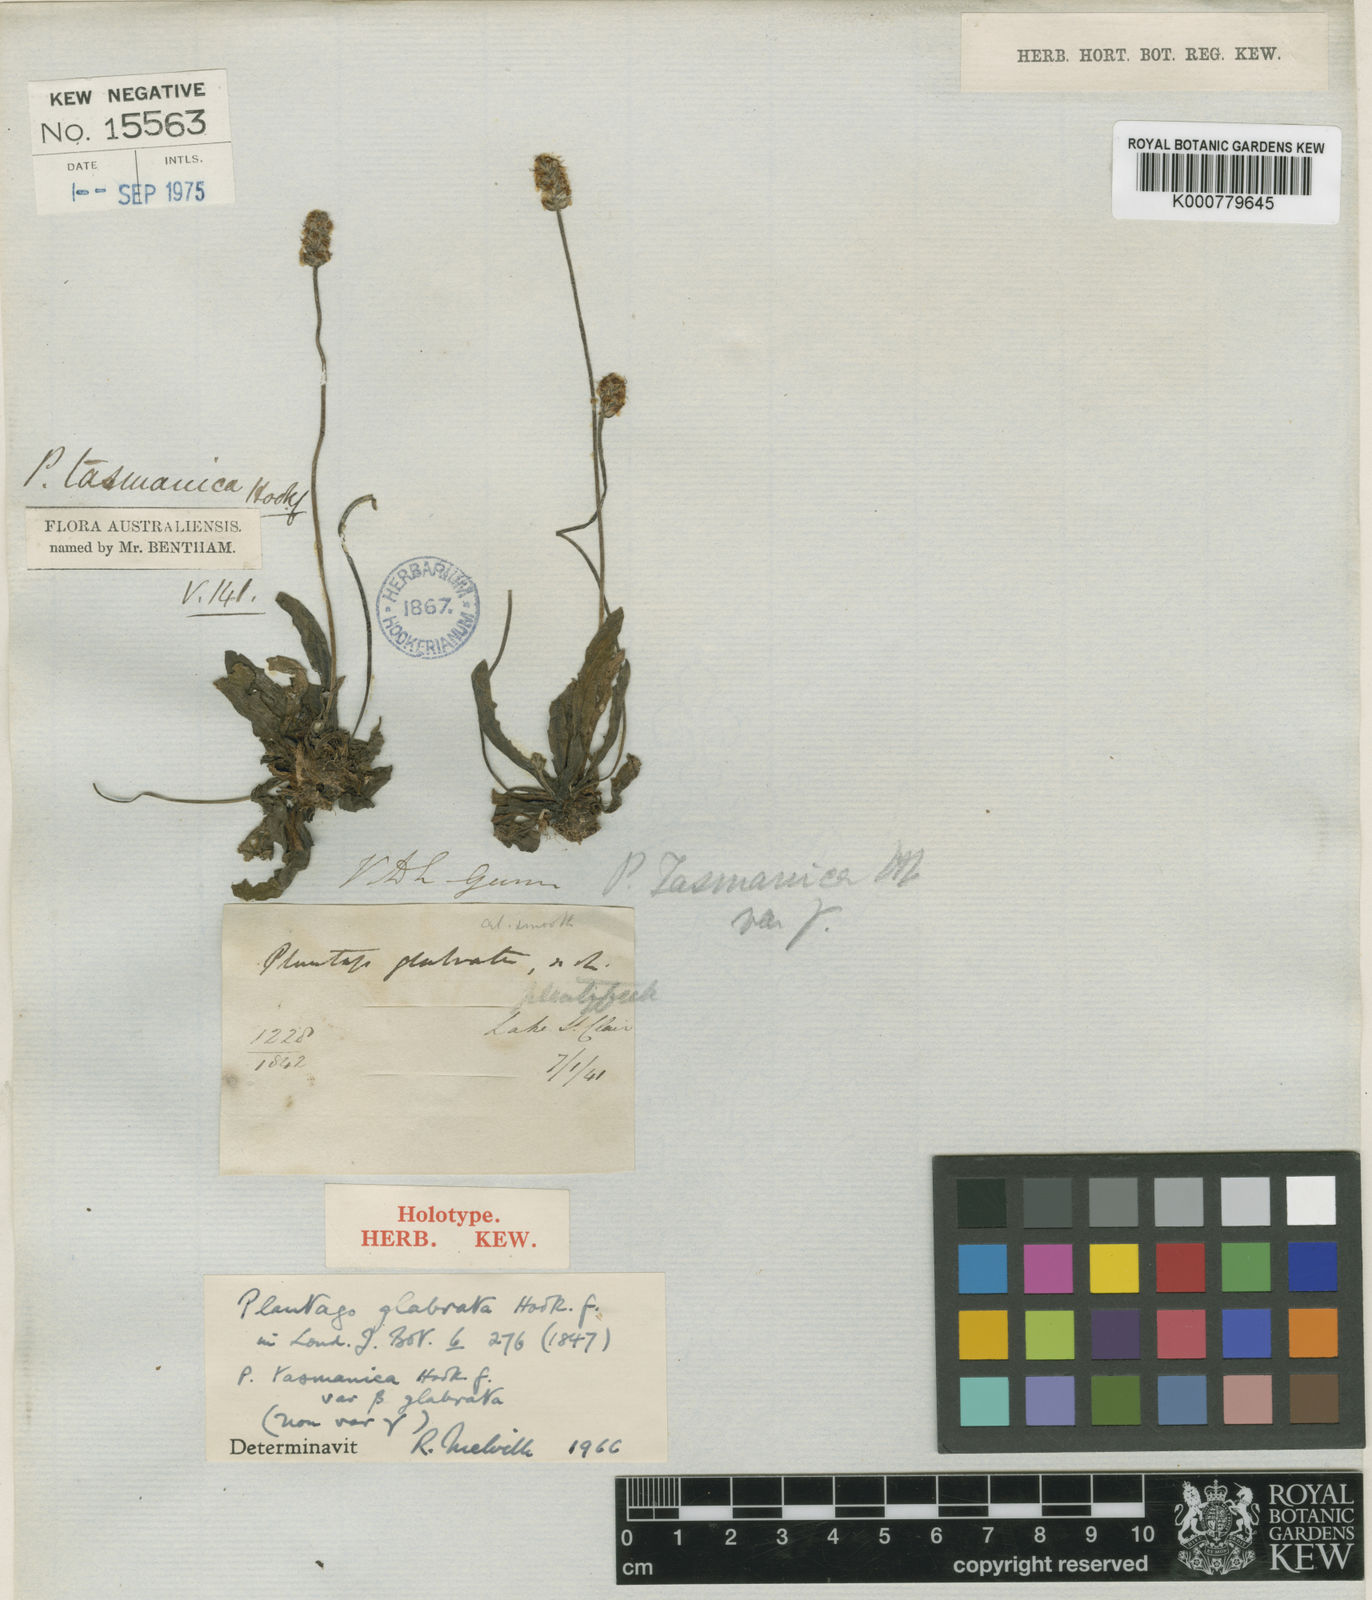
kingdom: Plantae
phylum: Tracheophyta
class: Magnoliopsida
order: Lamiales
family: Plantaginaceae
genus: Plantago
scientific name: Plantago tasmanica
